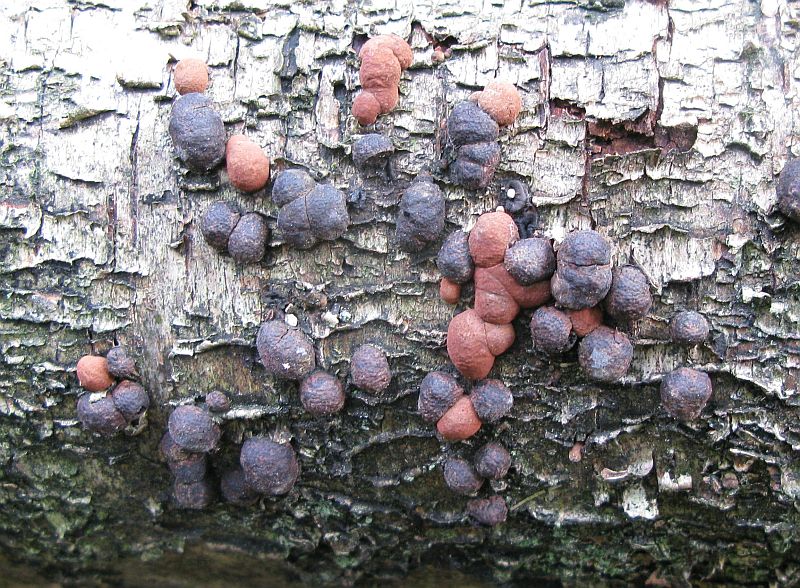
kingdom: Fungi
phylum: Ascomycota
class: Sordariomycetes
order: Xylariales
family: Hypoxylaceae
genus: Hypoxylon
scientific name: Hypoxylon fragiforme
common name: kuljordbær
